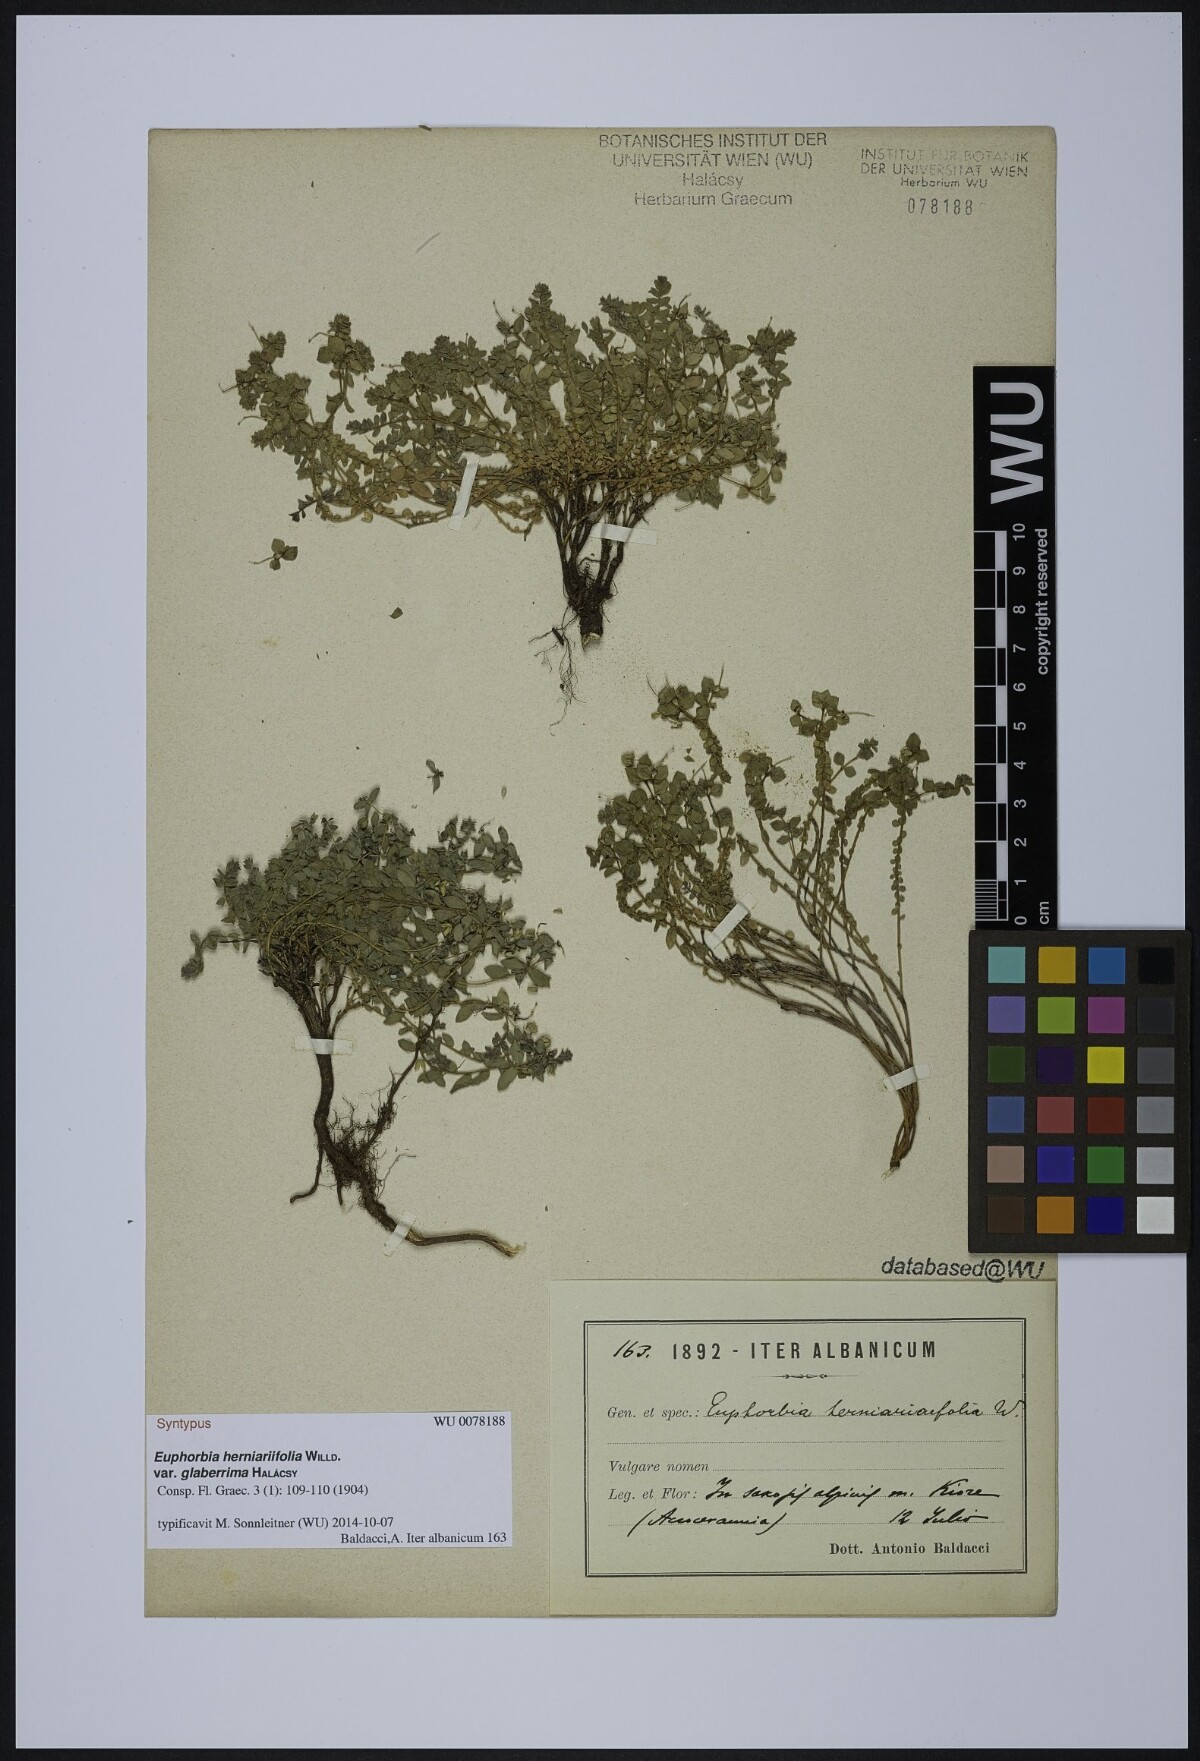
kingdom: Plantae
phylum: Tracheophyta
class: Magnoliopsida
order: Malpighiales
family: Euphorbiaceae
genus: Euphorbia
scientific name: Euphorbia herniariifolia
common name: Herniaria-leaf spurge
